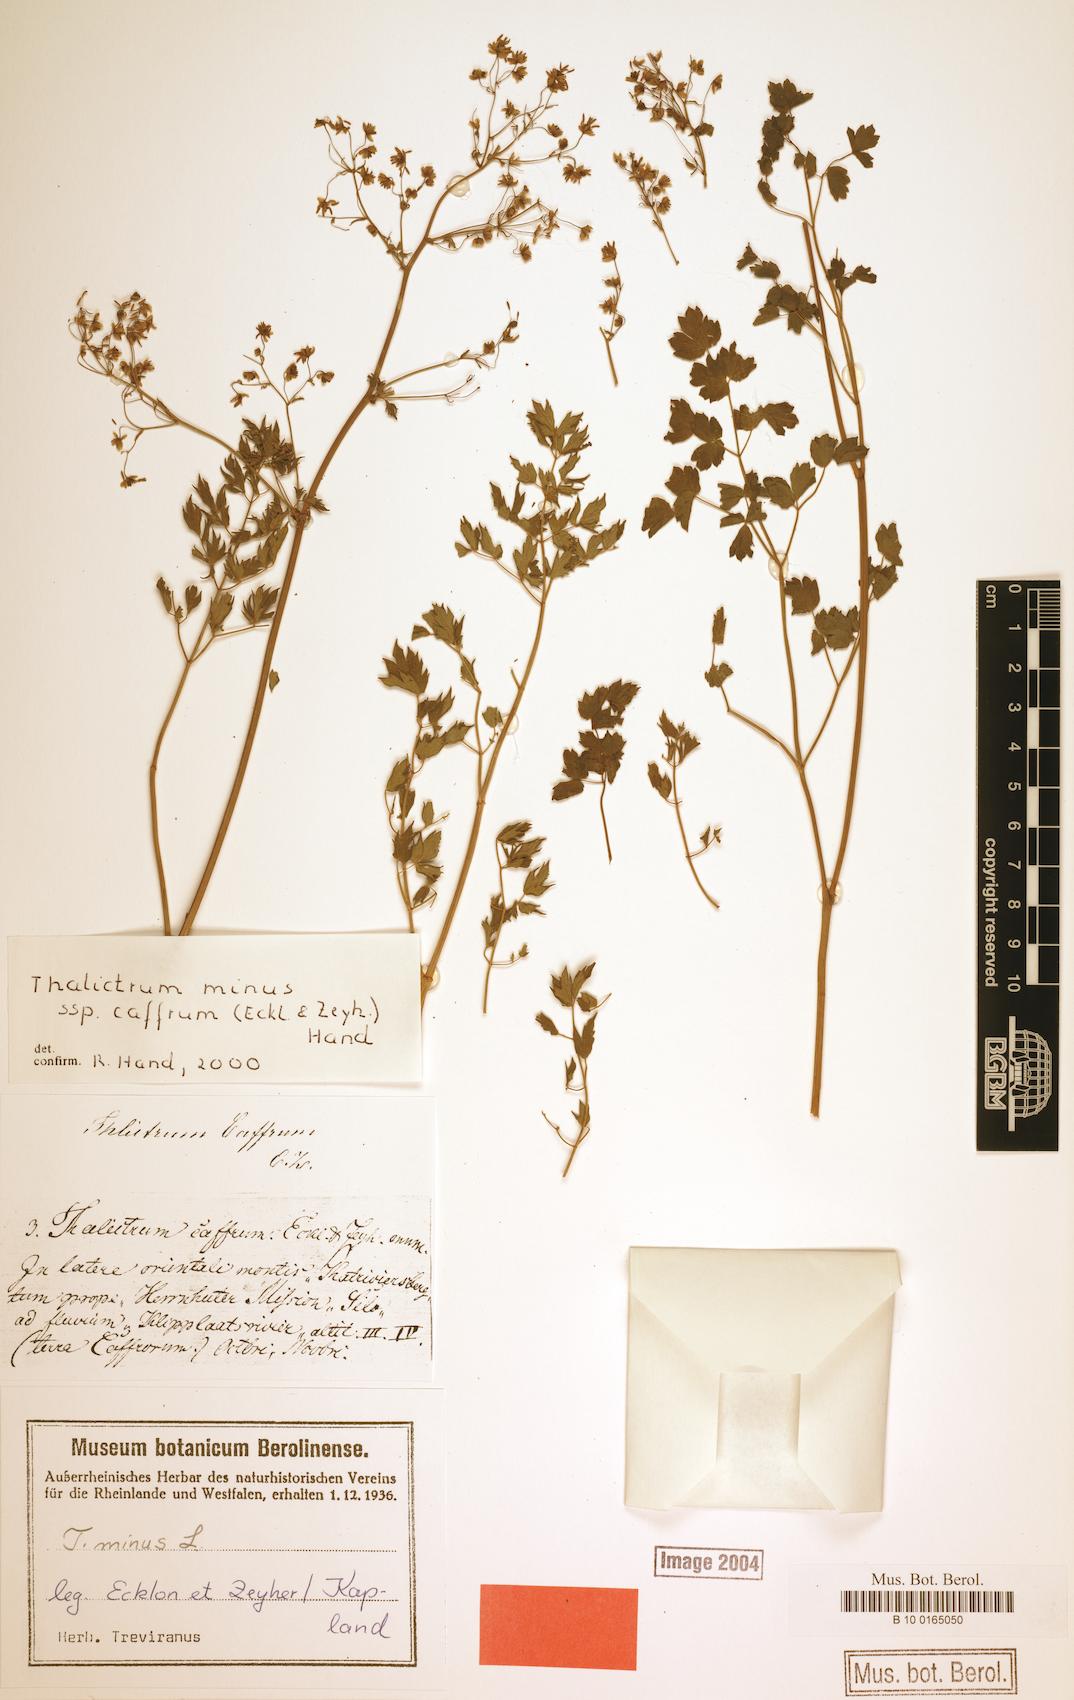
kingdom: Plantae
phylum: Tracheophyta
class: Magnoliopsida
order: Ranunculales
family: Ranunculaceae
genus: Thalictrum
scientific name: Thalictrum minus
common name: Lesser meadow-rue
